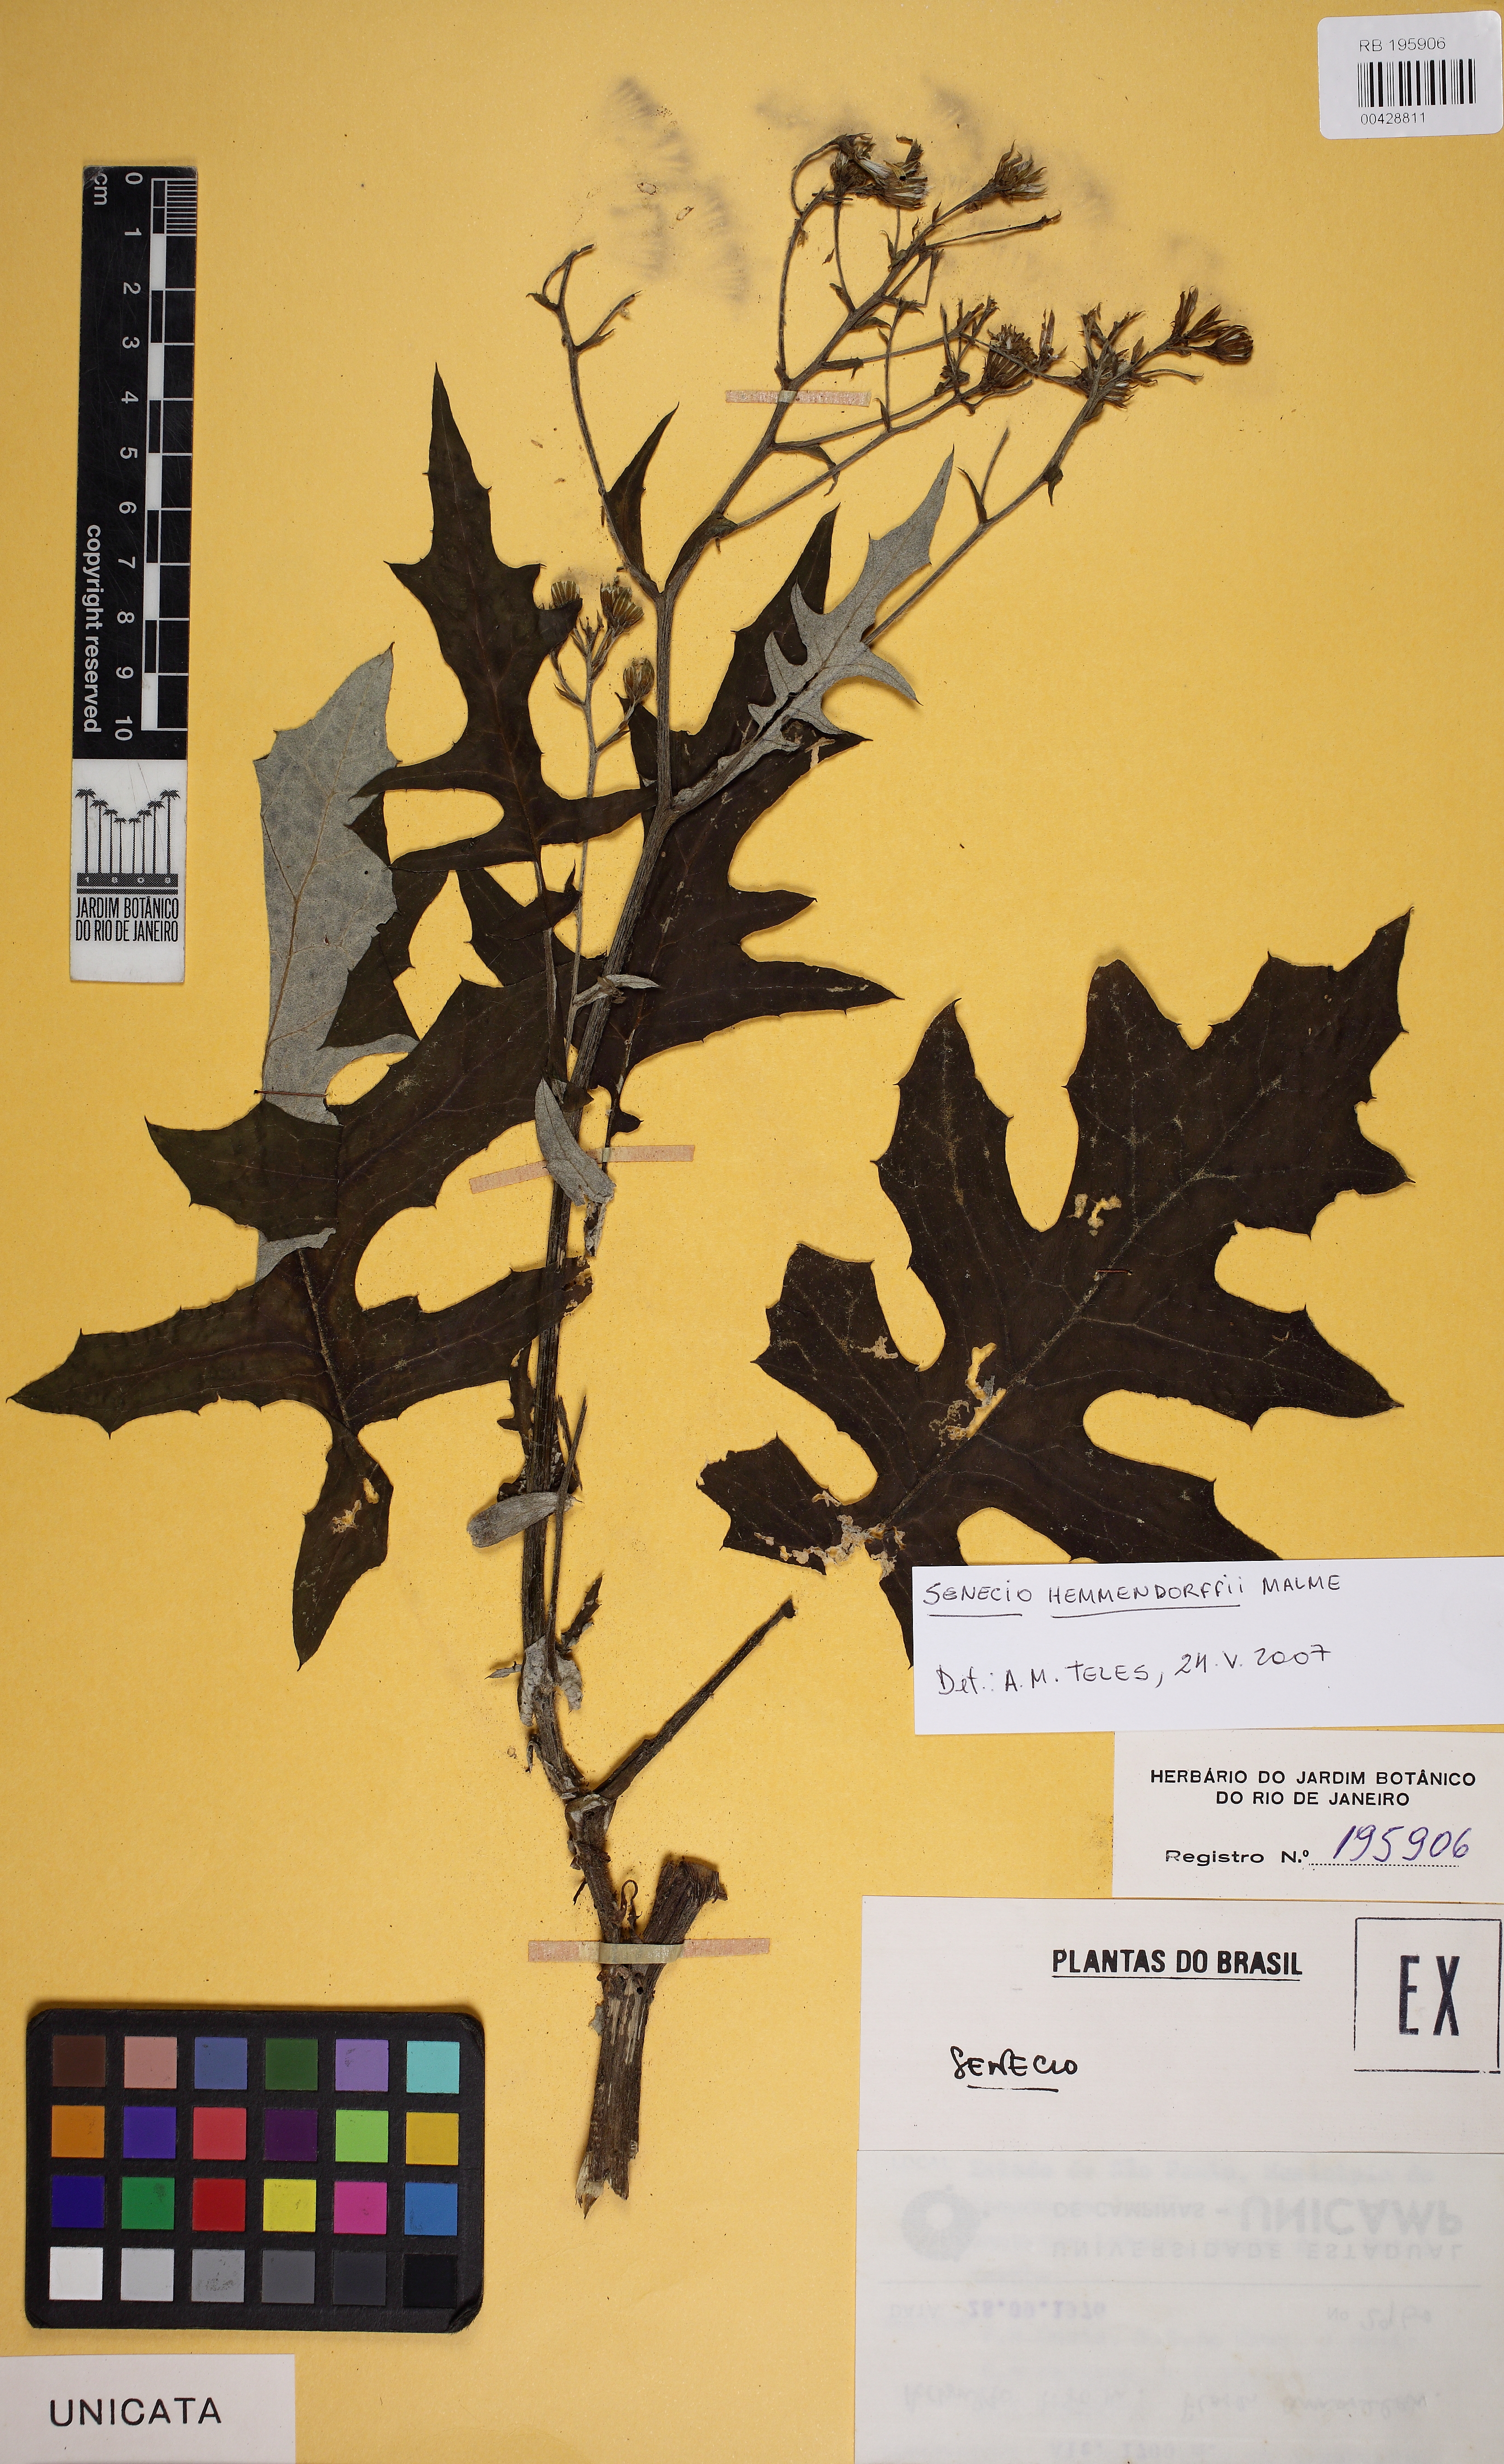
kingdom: Plantae
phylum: Tracheophyta
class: Magnoliopsida
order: Asterales
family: Asteraceae
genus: Senecio
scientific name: Senecio stigophlebius
